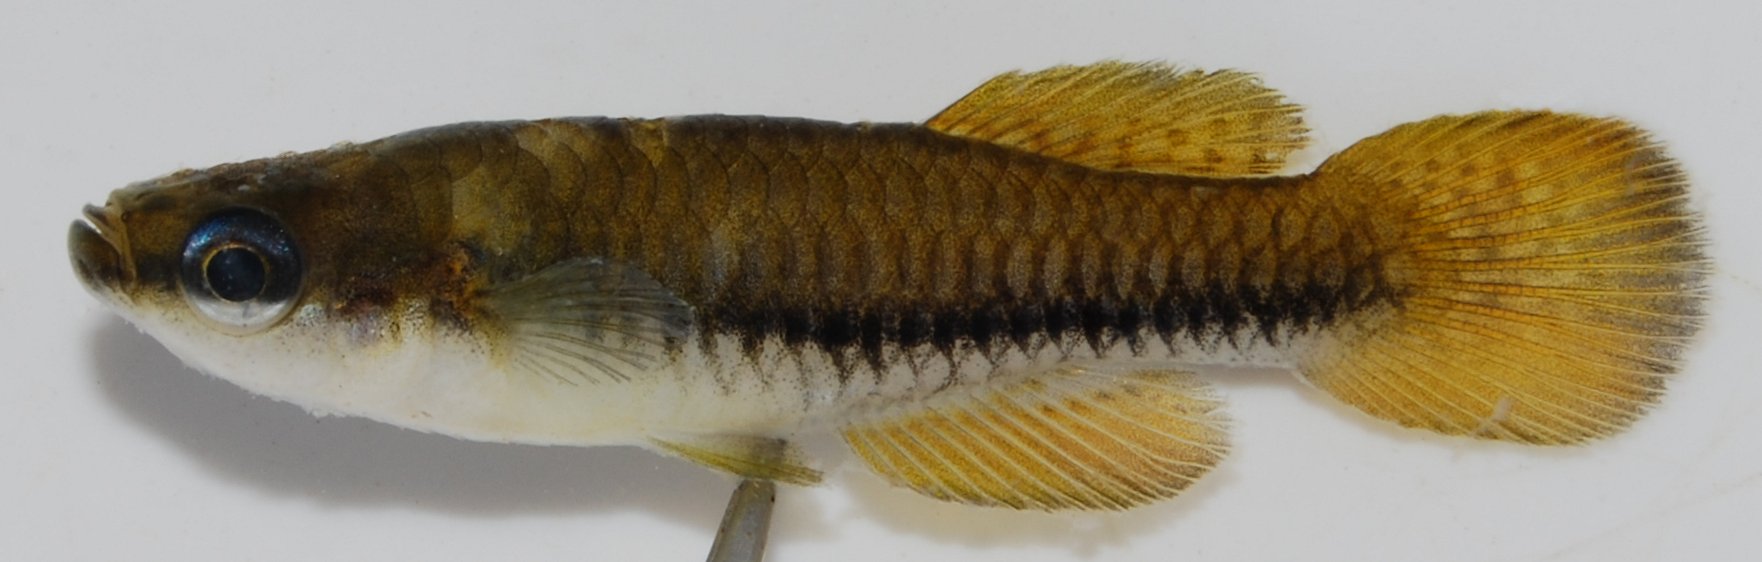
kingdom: Animalia
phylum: Chordata
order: Cyprinodontiformes
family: Poeciliidae
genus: Lacustricola
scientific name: Lacustricola katangae
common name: Striped topminnow
